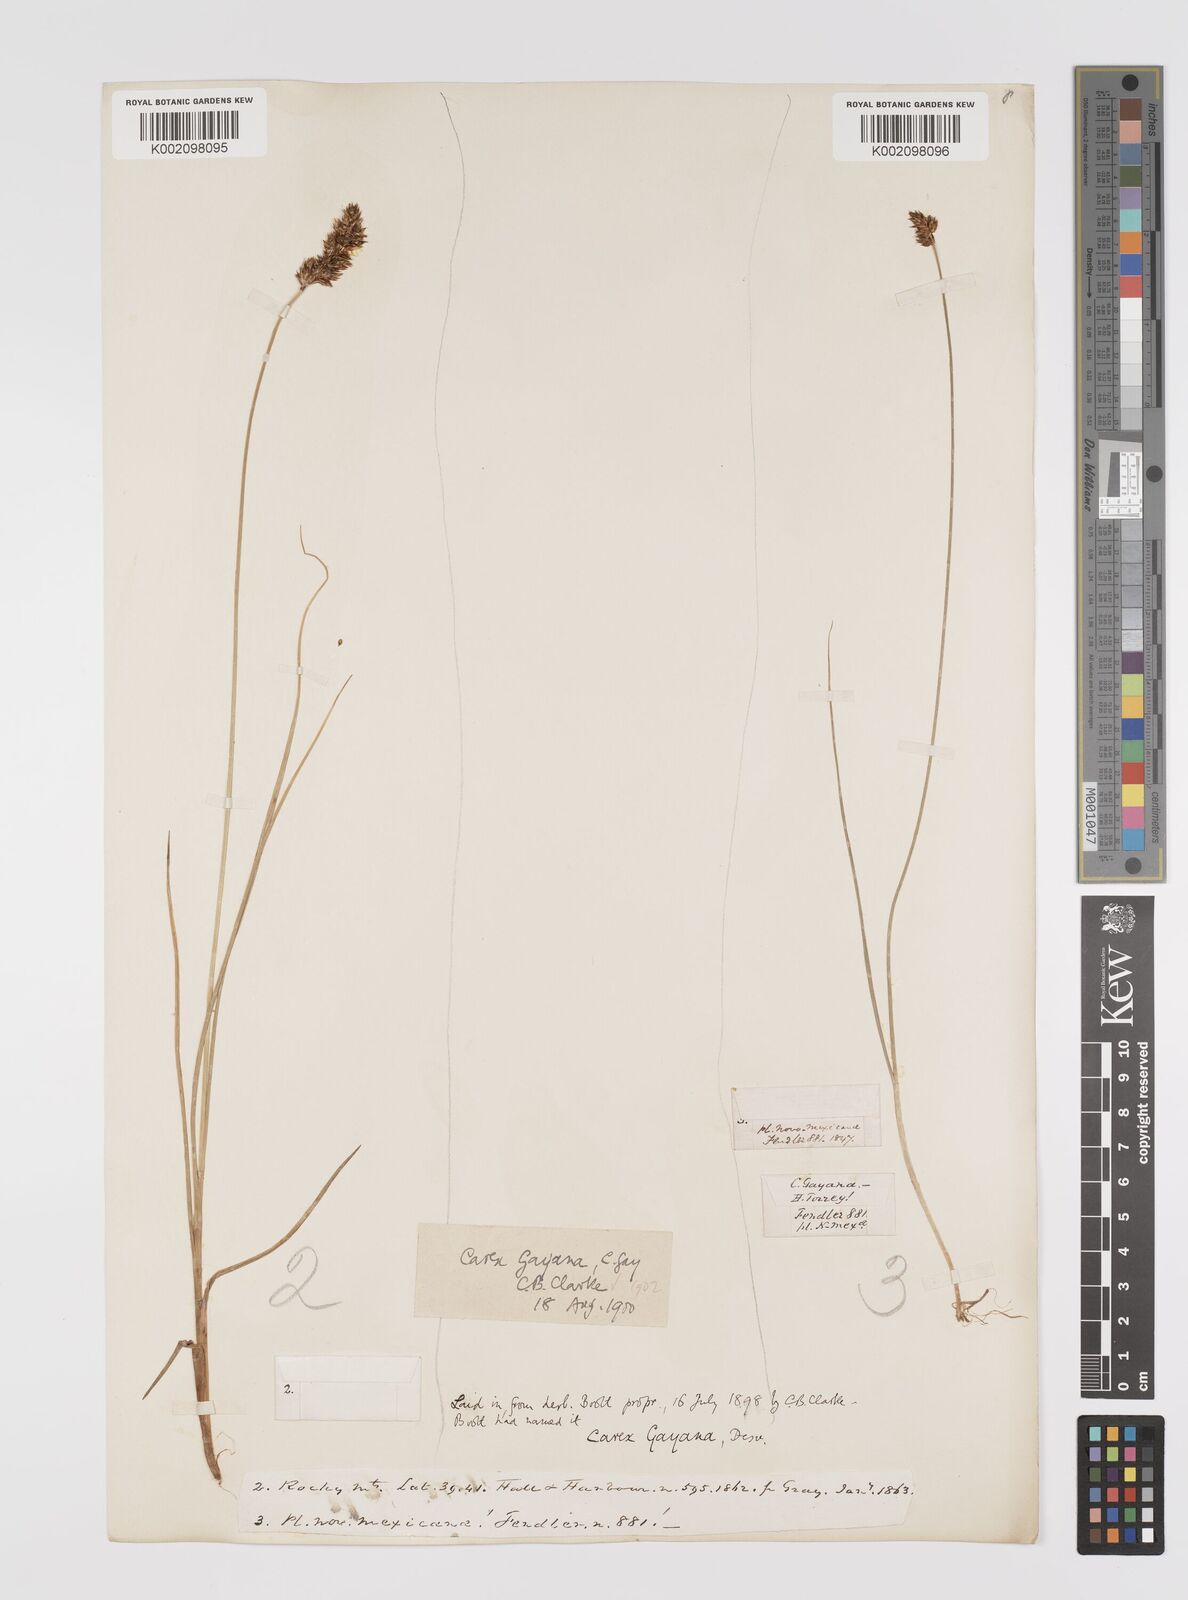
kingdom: Plantae
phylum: Tracheophyta
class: Liliopsida
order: Poales
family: Cyperaceae
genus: Carex
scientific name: Carex praegracilis
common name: Black creeper sedge
